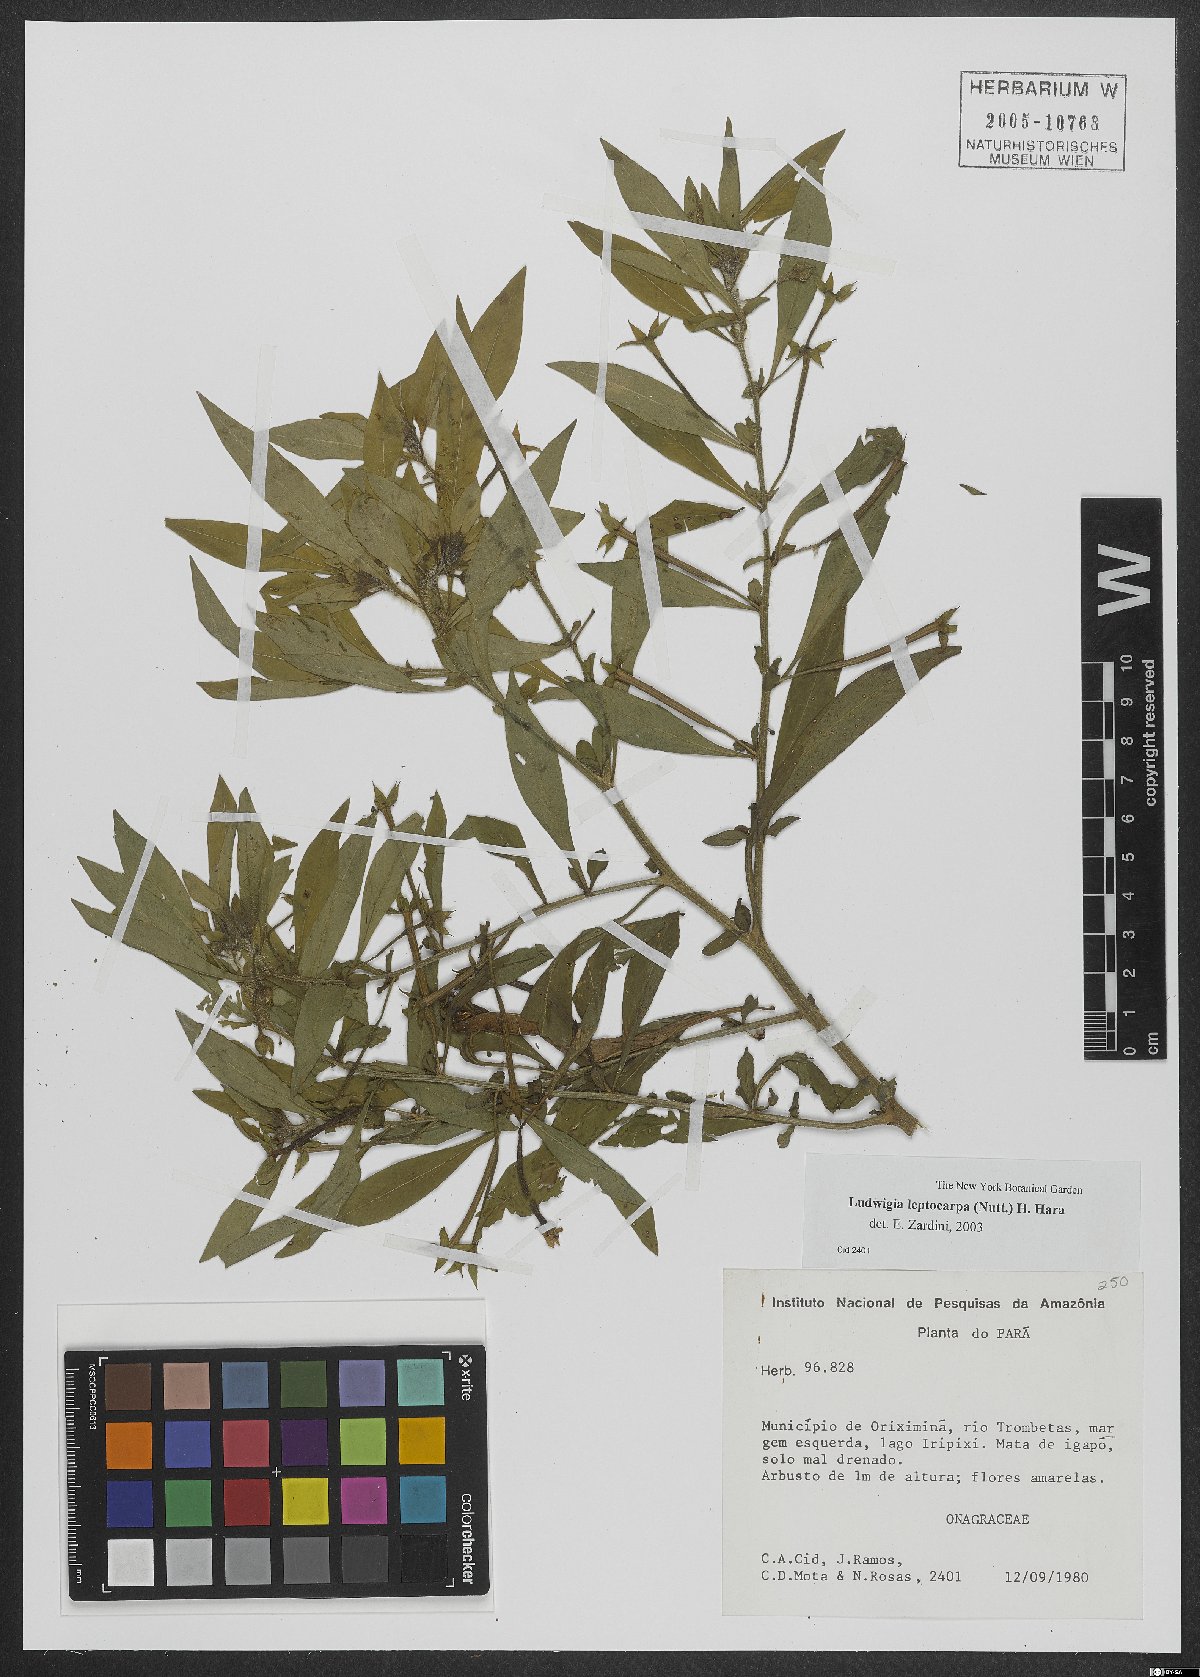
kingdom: Plantae
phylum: Tracheophyta
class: Magnoliopsida
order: Myrtales
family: Onagraceae
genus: Ludwigia
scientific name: Ludwigia leptocarpa
